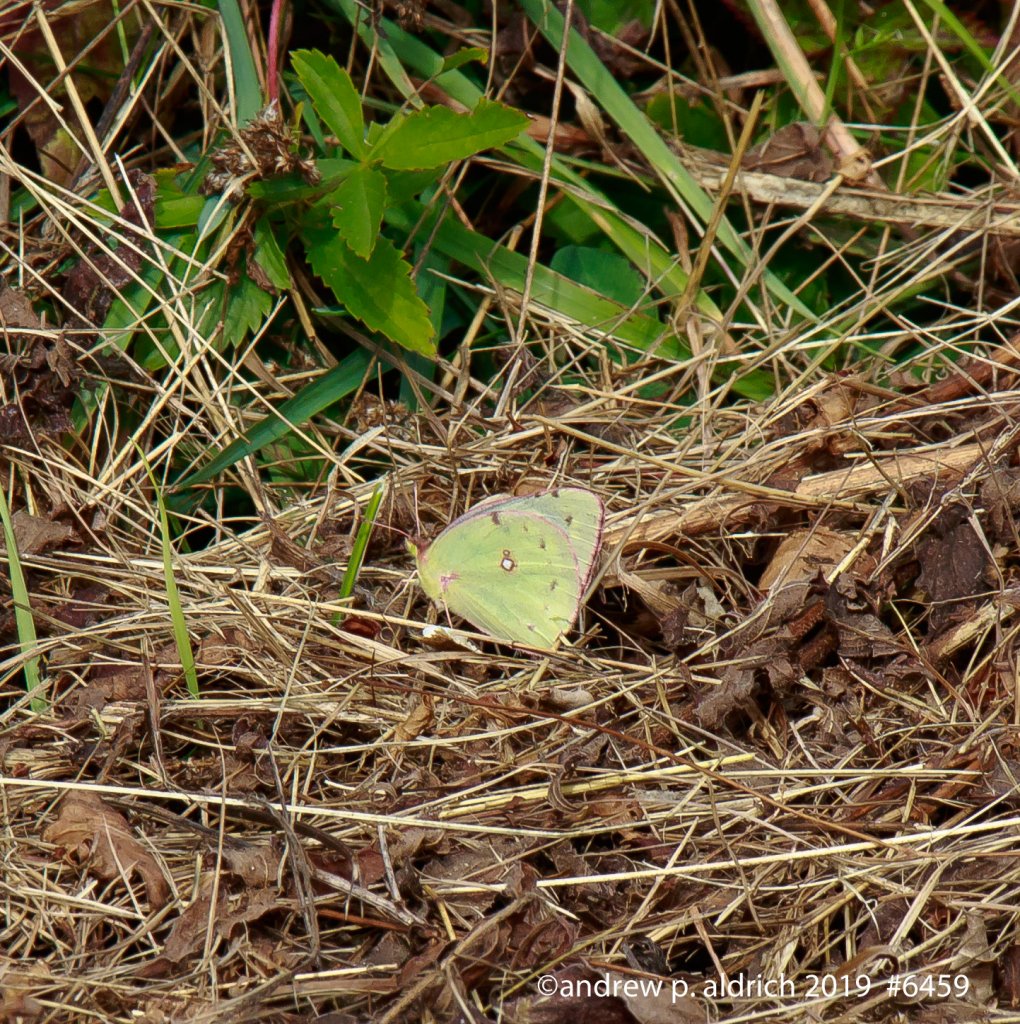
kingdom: Animalia
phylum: Arthropoda
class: Insecta
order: Lepidoptera
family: Pieridae
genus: Colias
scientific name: Colias
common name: Clouded Yellows
